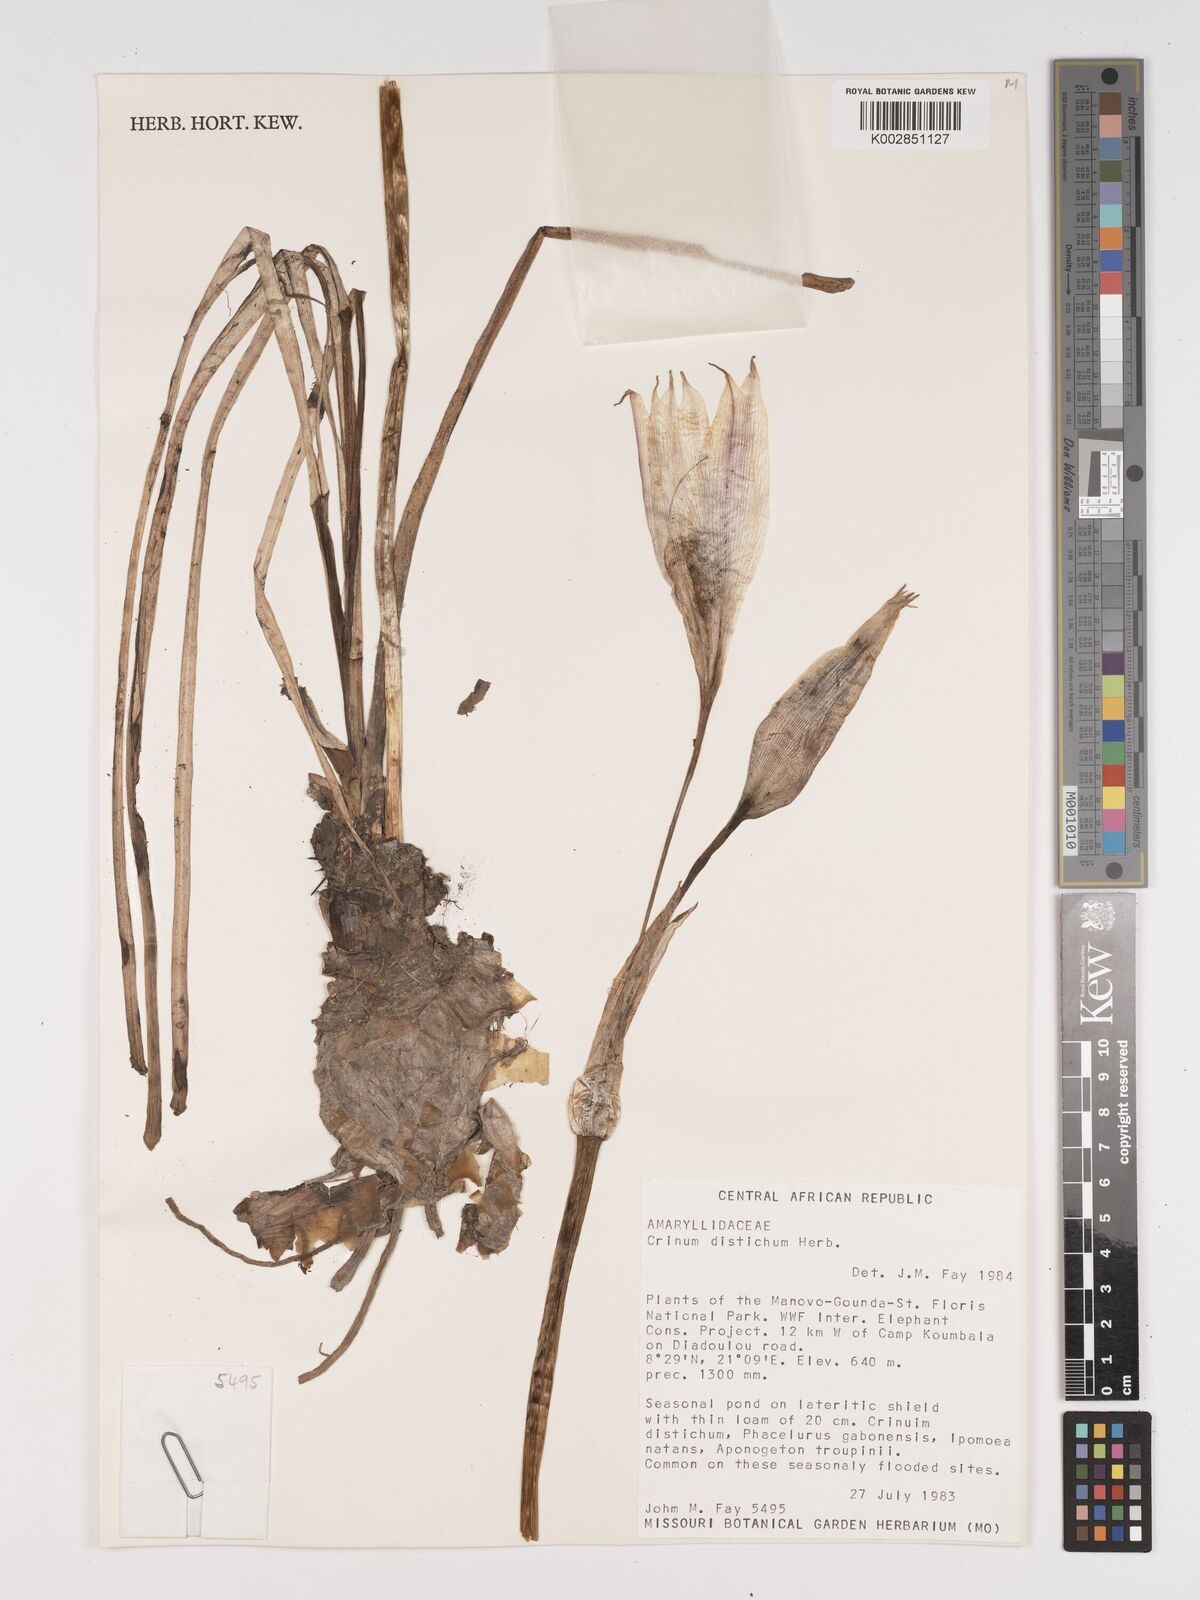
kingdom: Plantae
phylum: Tracheophyta
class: Liliopsida
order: Asparagales
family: Amaryllidaceae
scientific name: Amaryllidaceae
